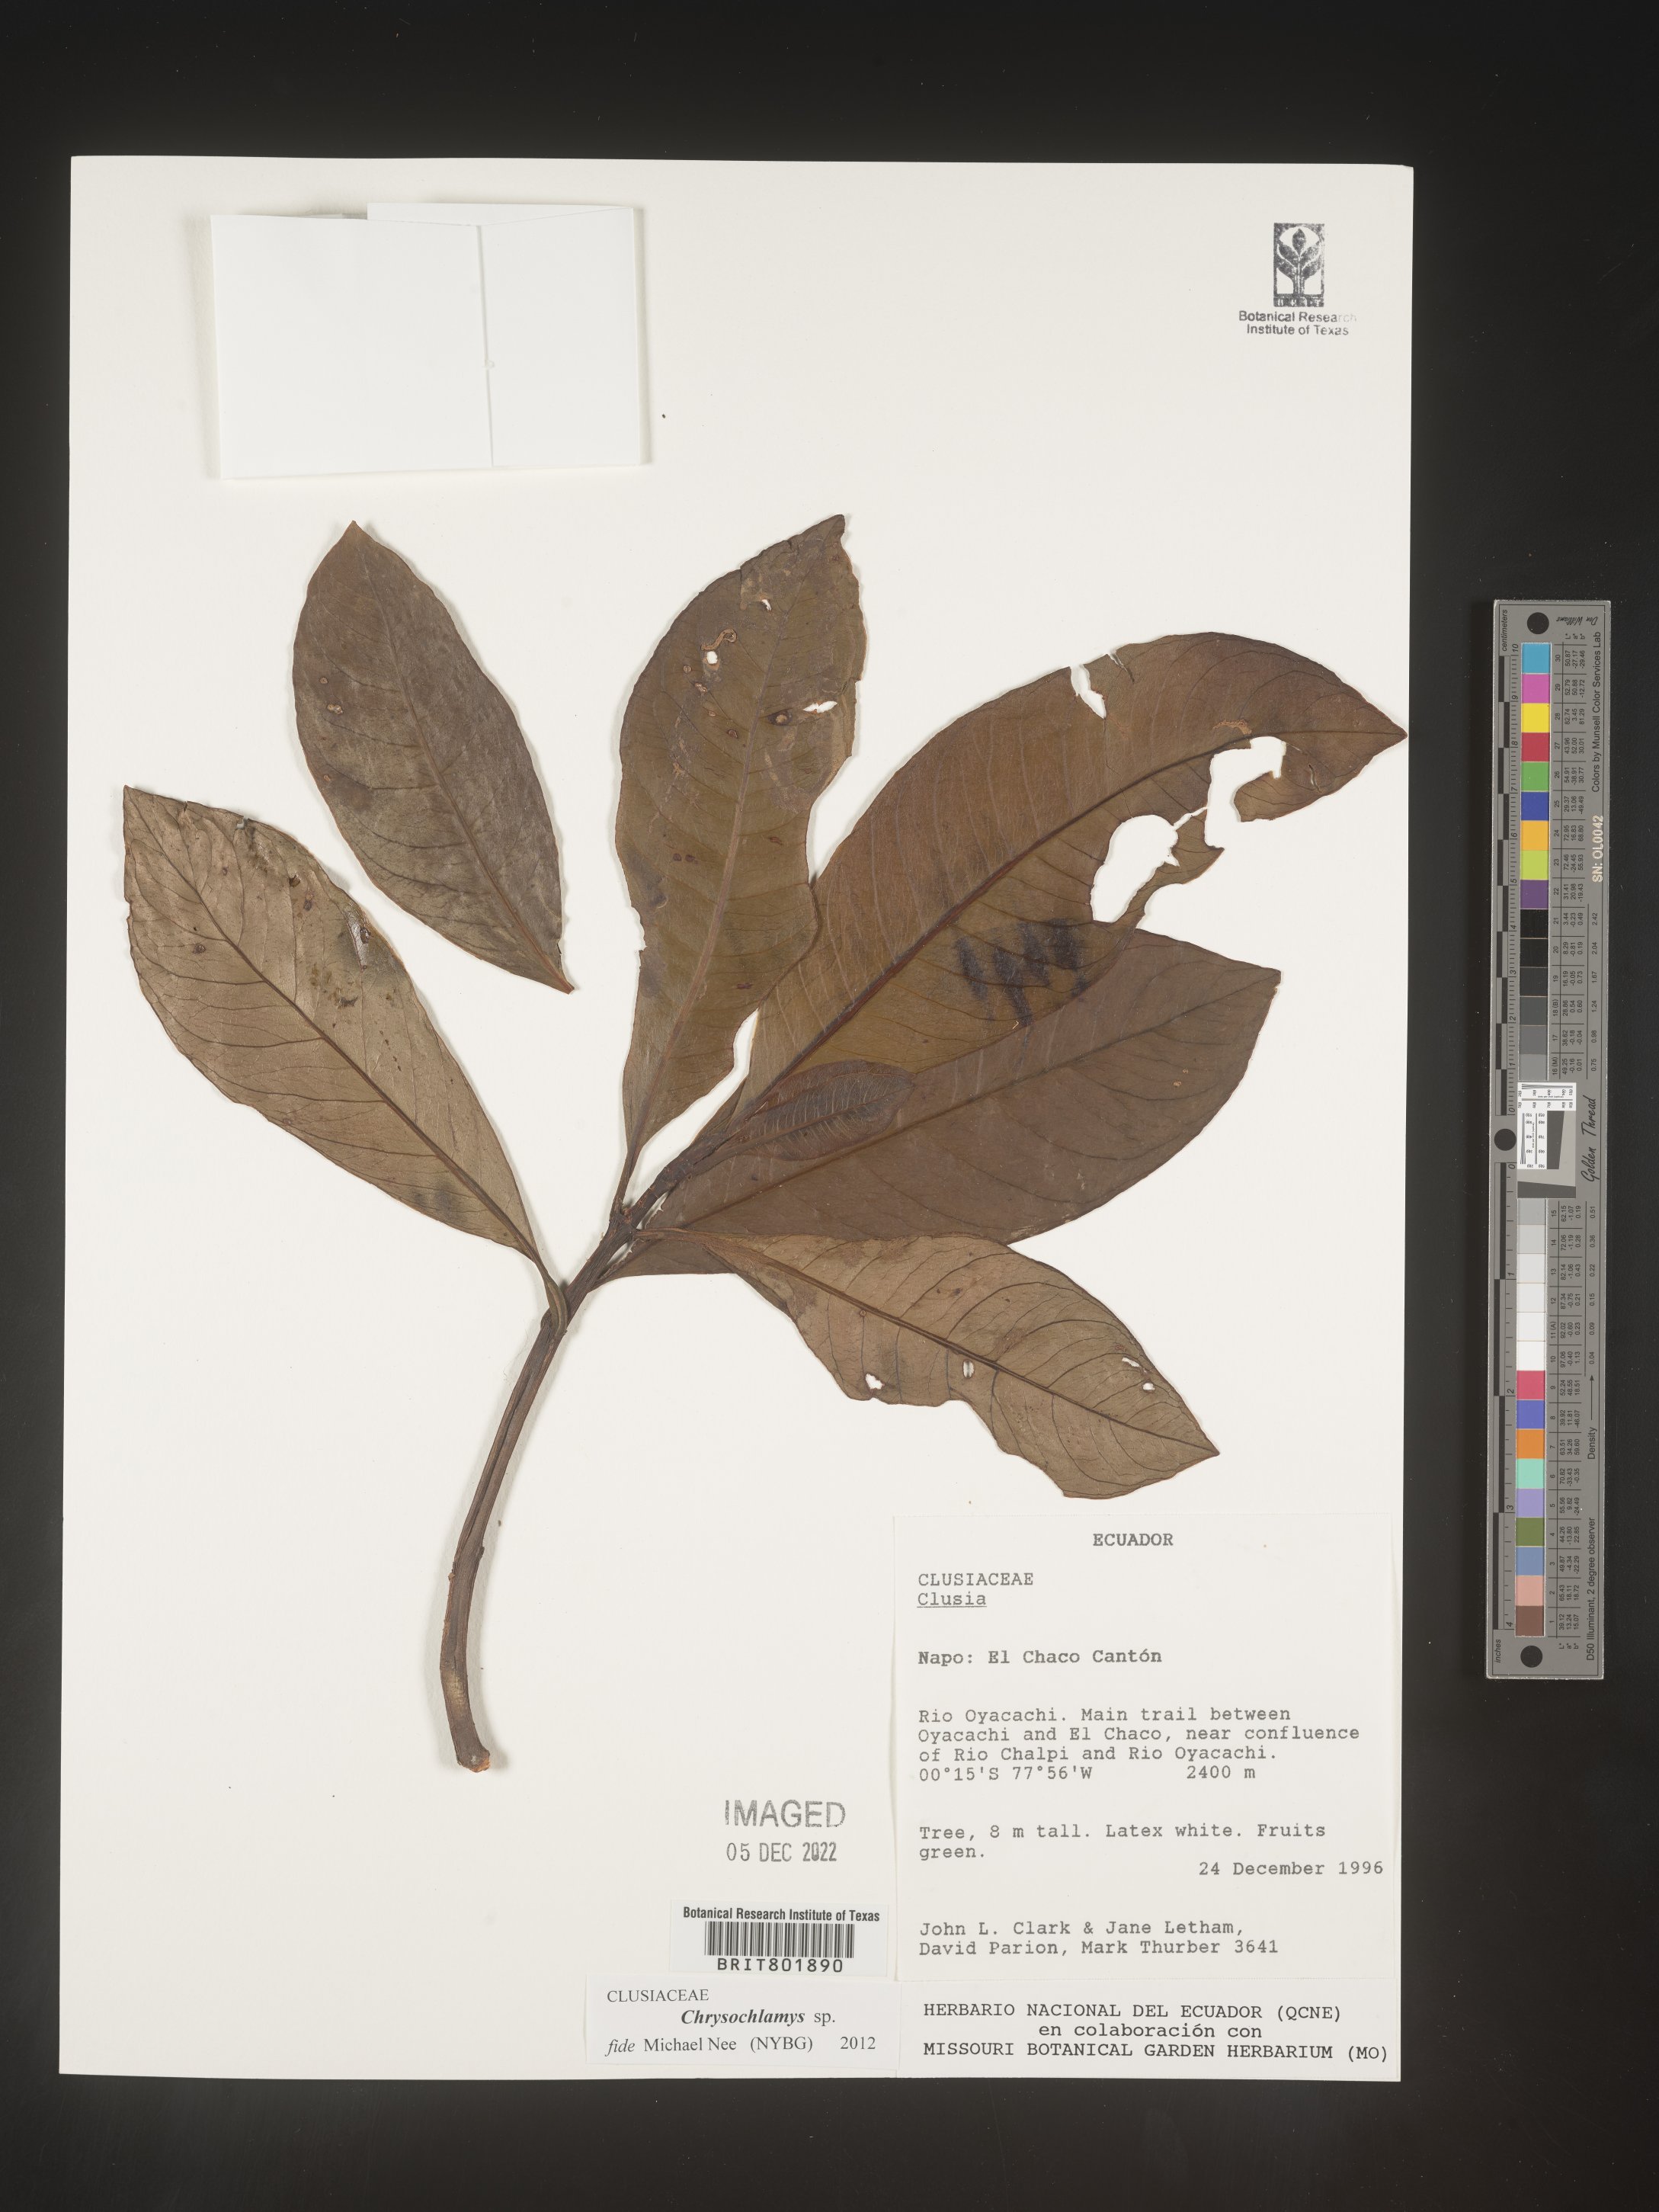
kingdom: Plantae
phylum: Tracheophyta
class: Magnoliopsida
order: Malpighiales
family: Clusiaceae
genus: Chrysochlamys
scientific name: Chrysochlamys
